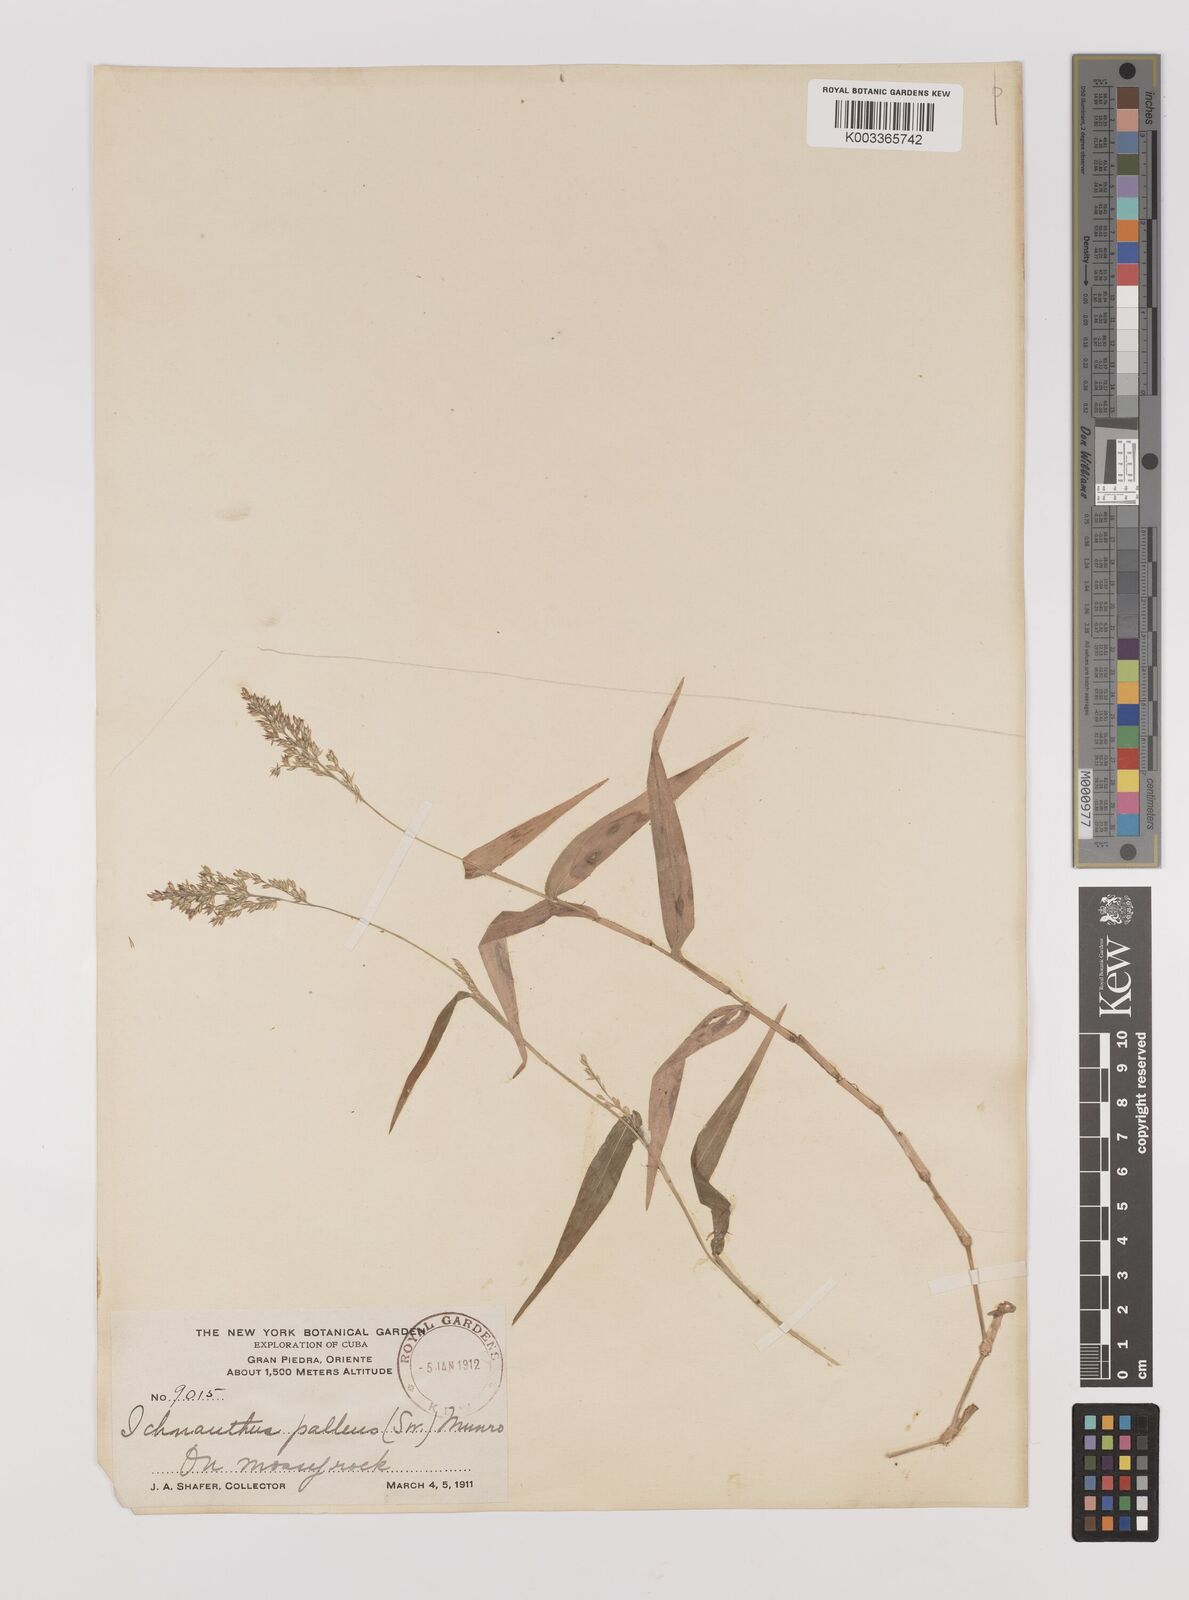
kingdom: Plantae
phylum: Tracheophyta
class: Liliopsida
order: Poales
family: Poaceae
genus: Ichnanthus
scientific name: Ichnanthus pallens
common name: Water grass
